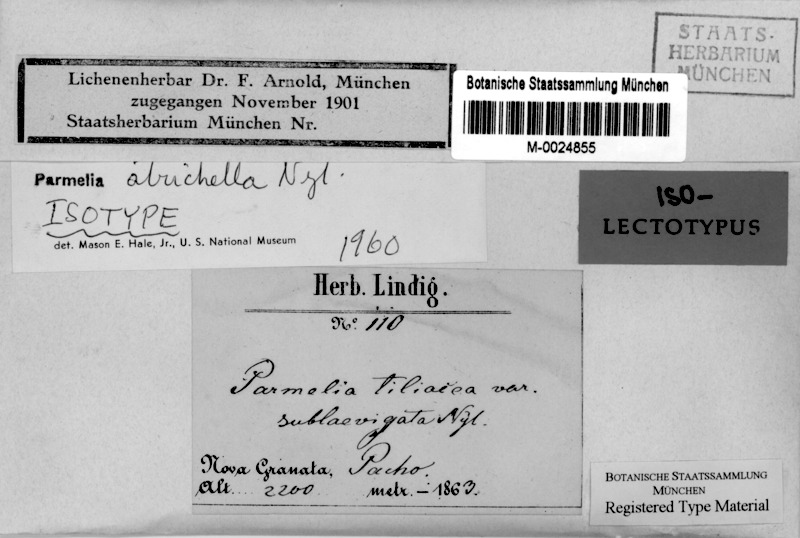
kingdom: Fungi
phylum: Ascomycota
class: Lecanoromycetes
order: Lecanorales
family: Parmeliaceae
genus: Bulbothrix
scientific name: Bulbothrix atrichella
